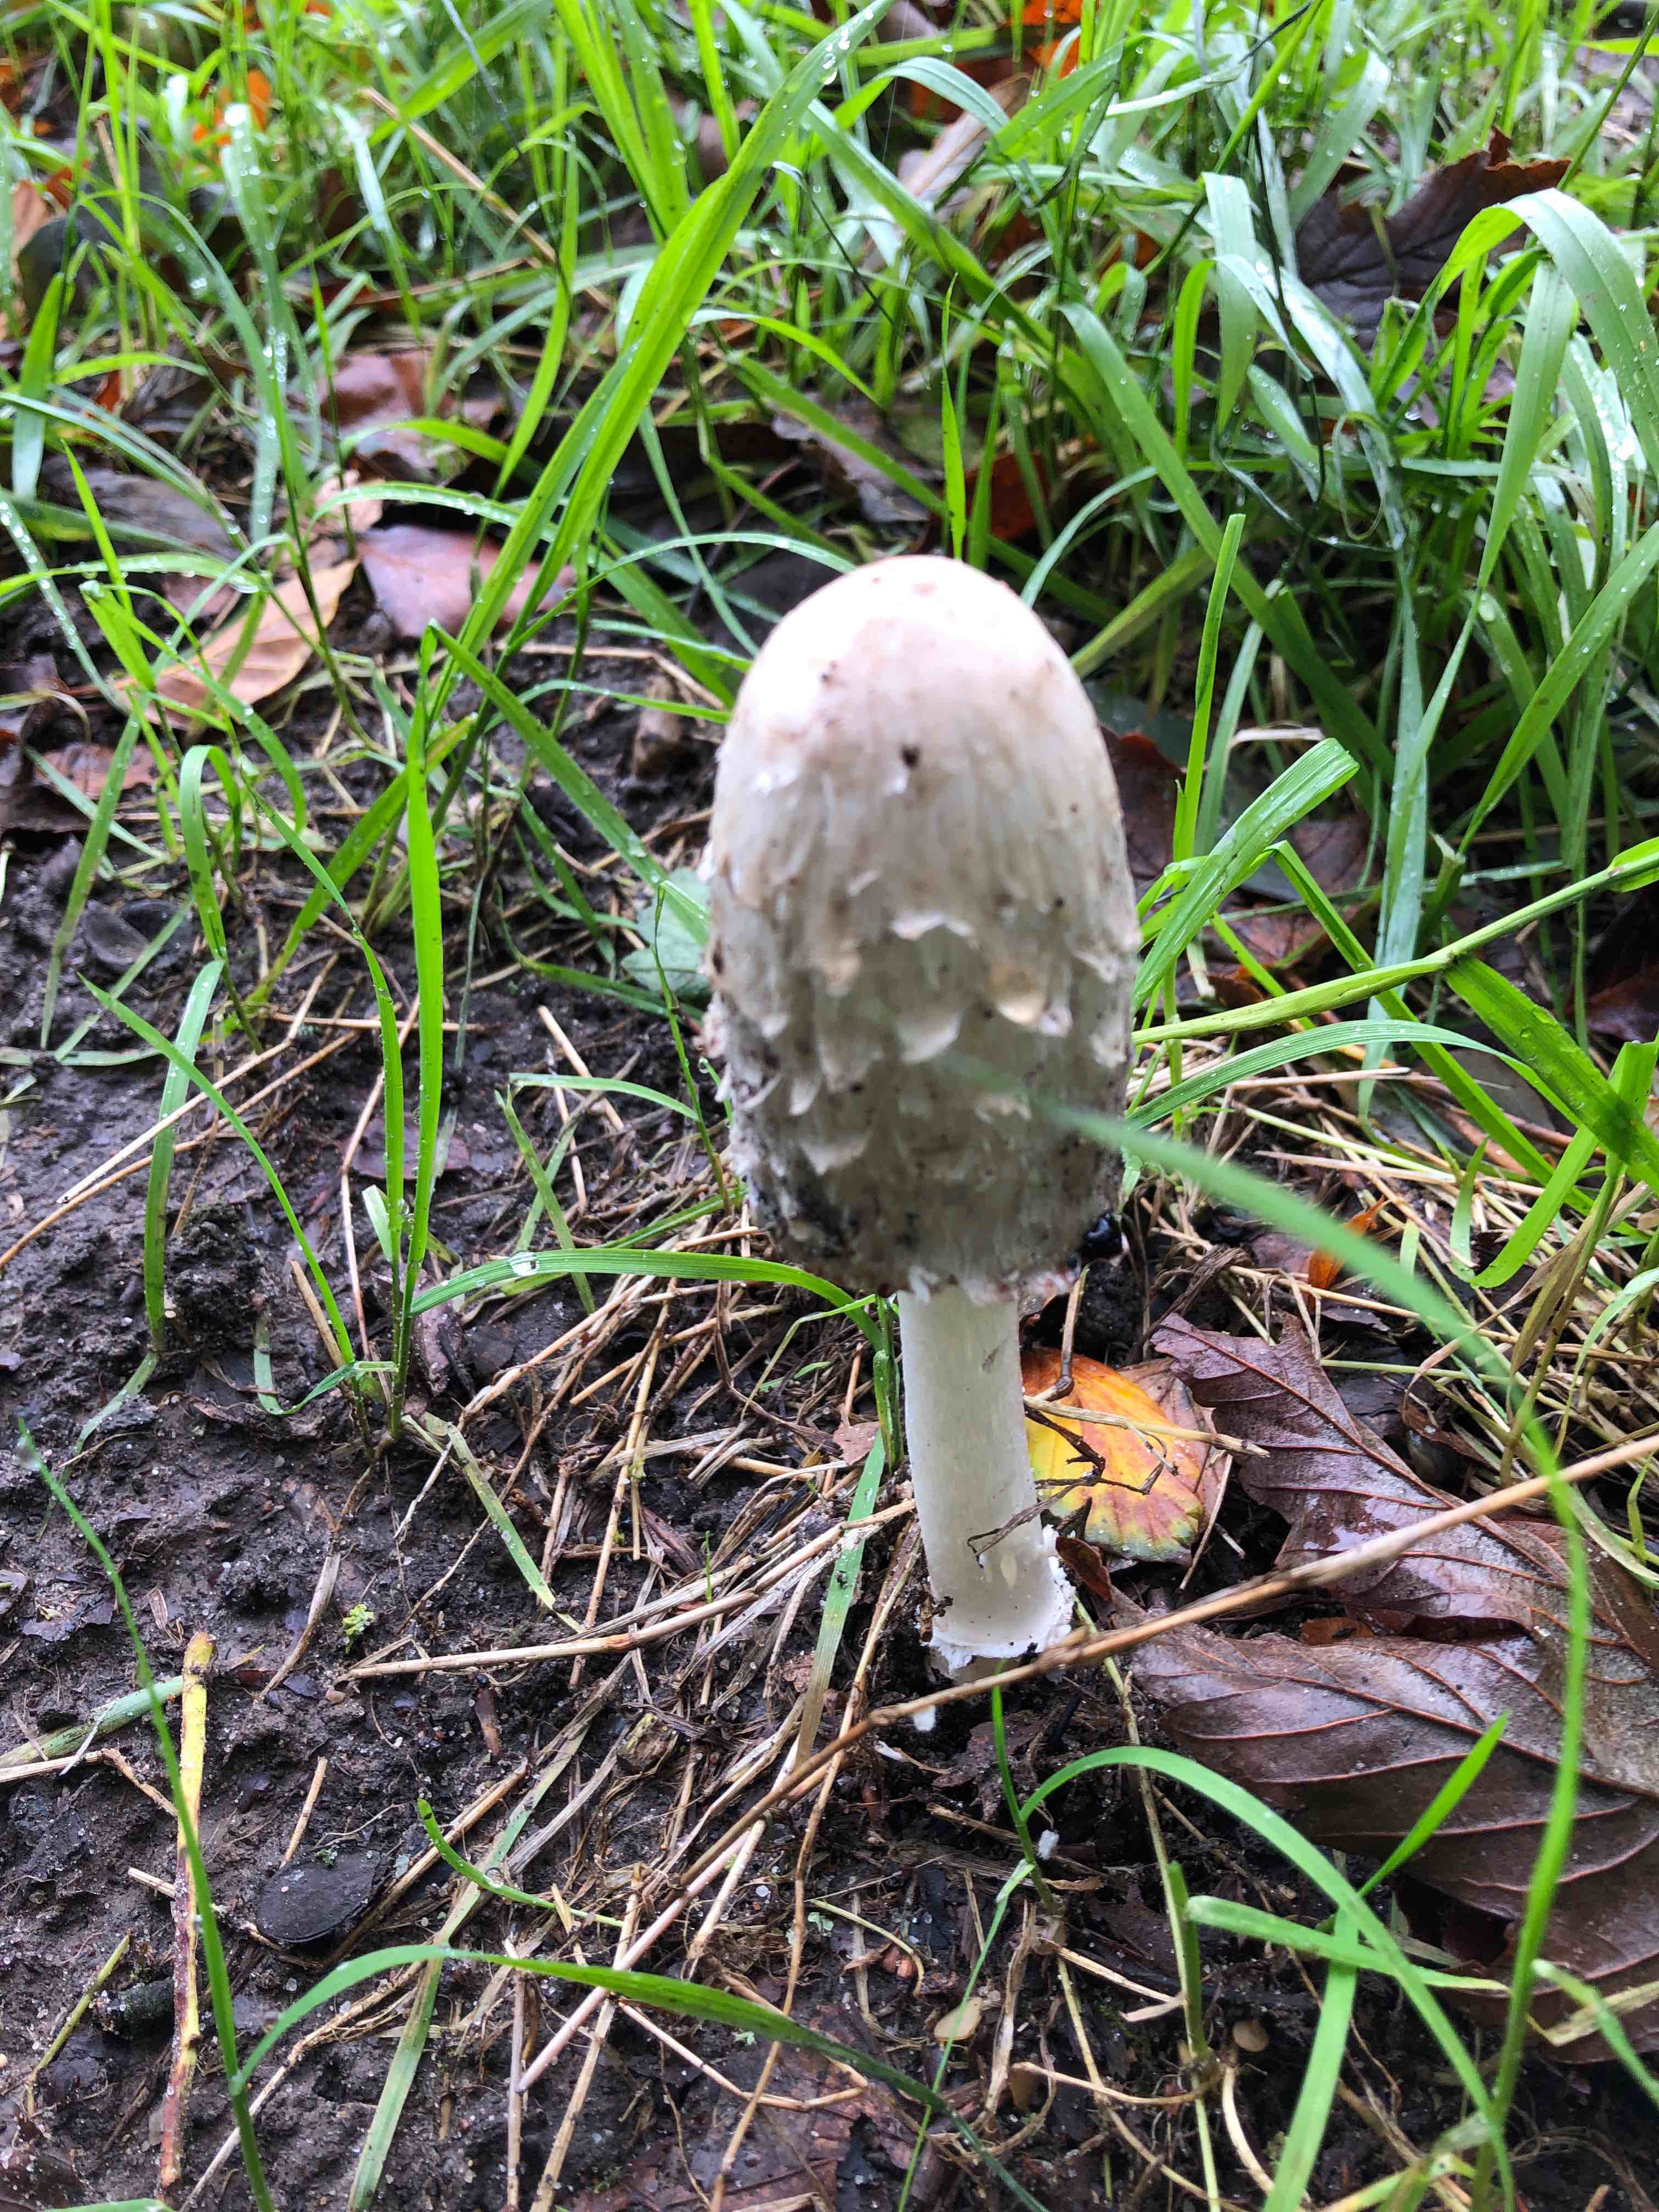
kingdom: Fungi
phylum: Basidiomycota
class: Agaricomycetes
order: Agaricales
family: Agaricaceae
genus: Coprinus
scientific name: Coprinus comatus
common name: stor parykhat
